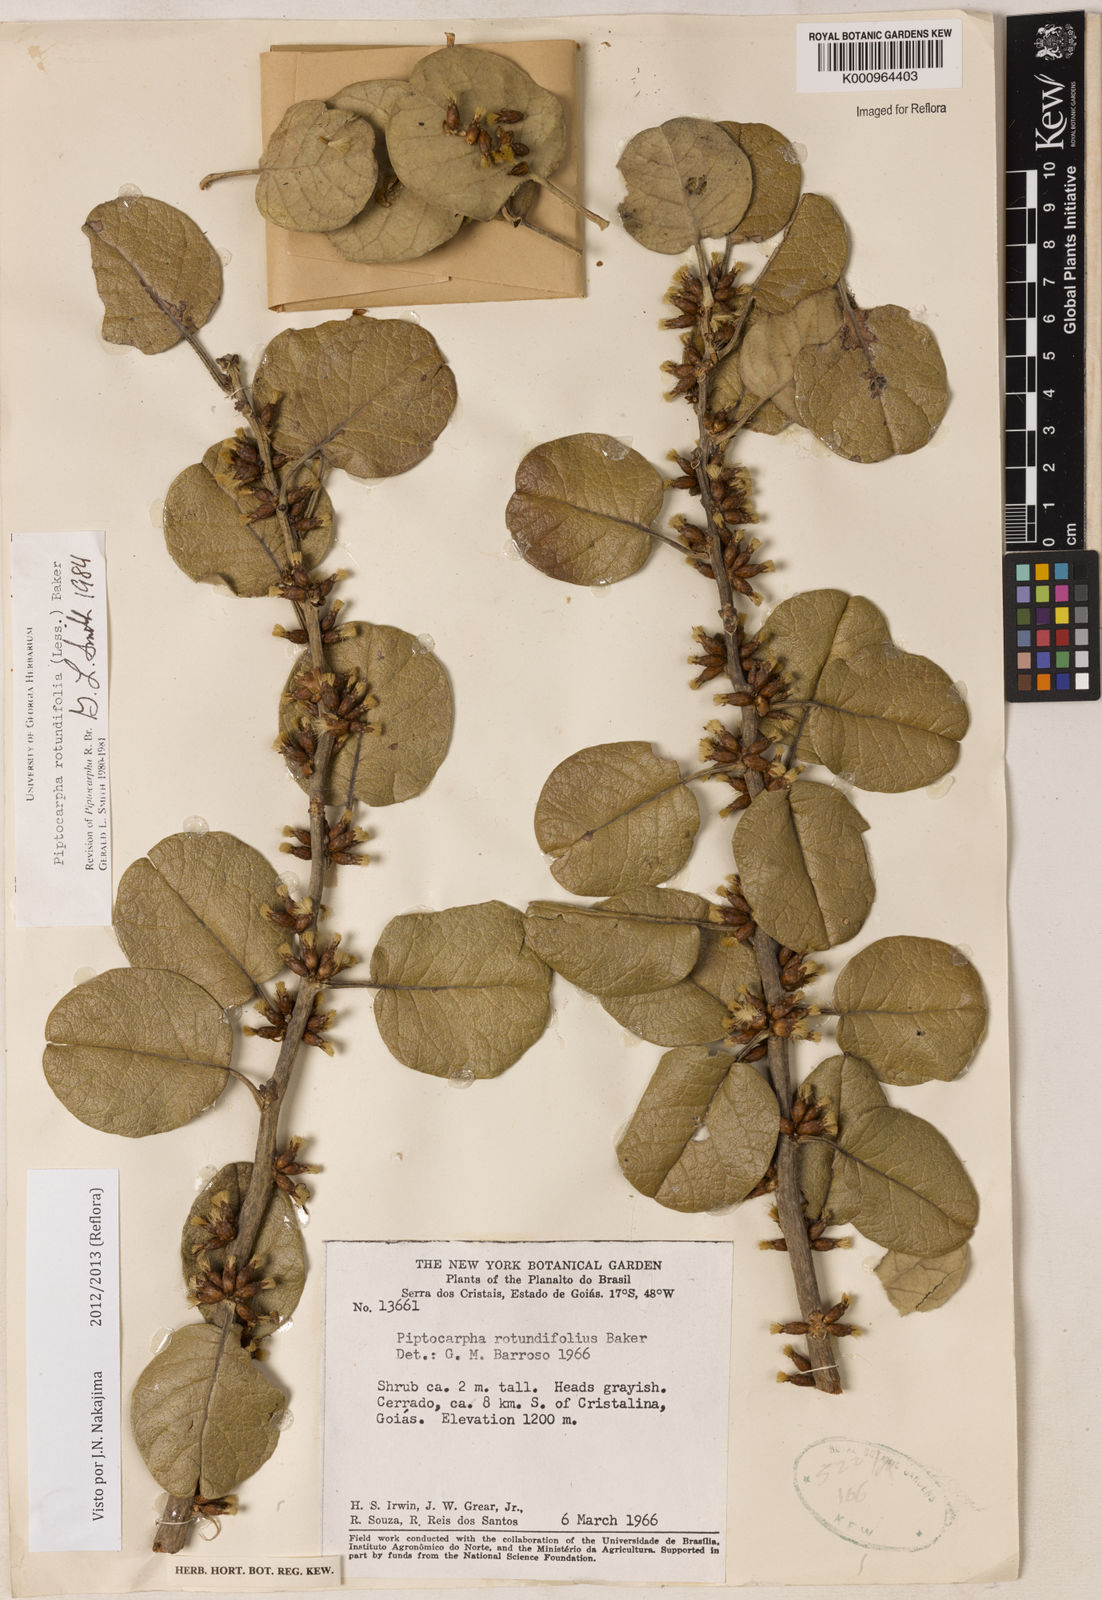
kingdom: Plantae
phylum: Tracheophyta
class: Magnoliopsida
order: Asterales
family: Asteraceae
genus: Piptocarpha
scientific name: Piptocarpha rotundifolia
